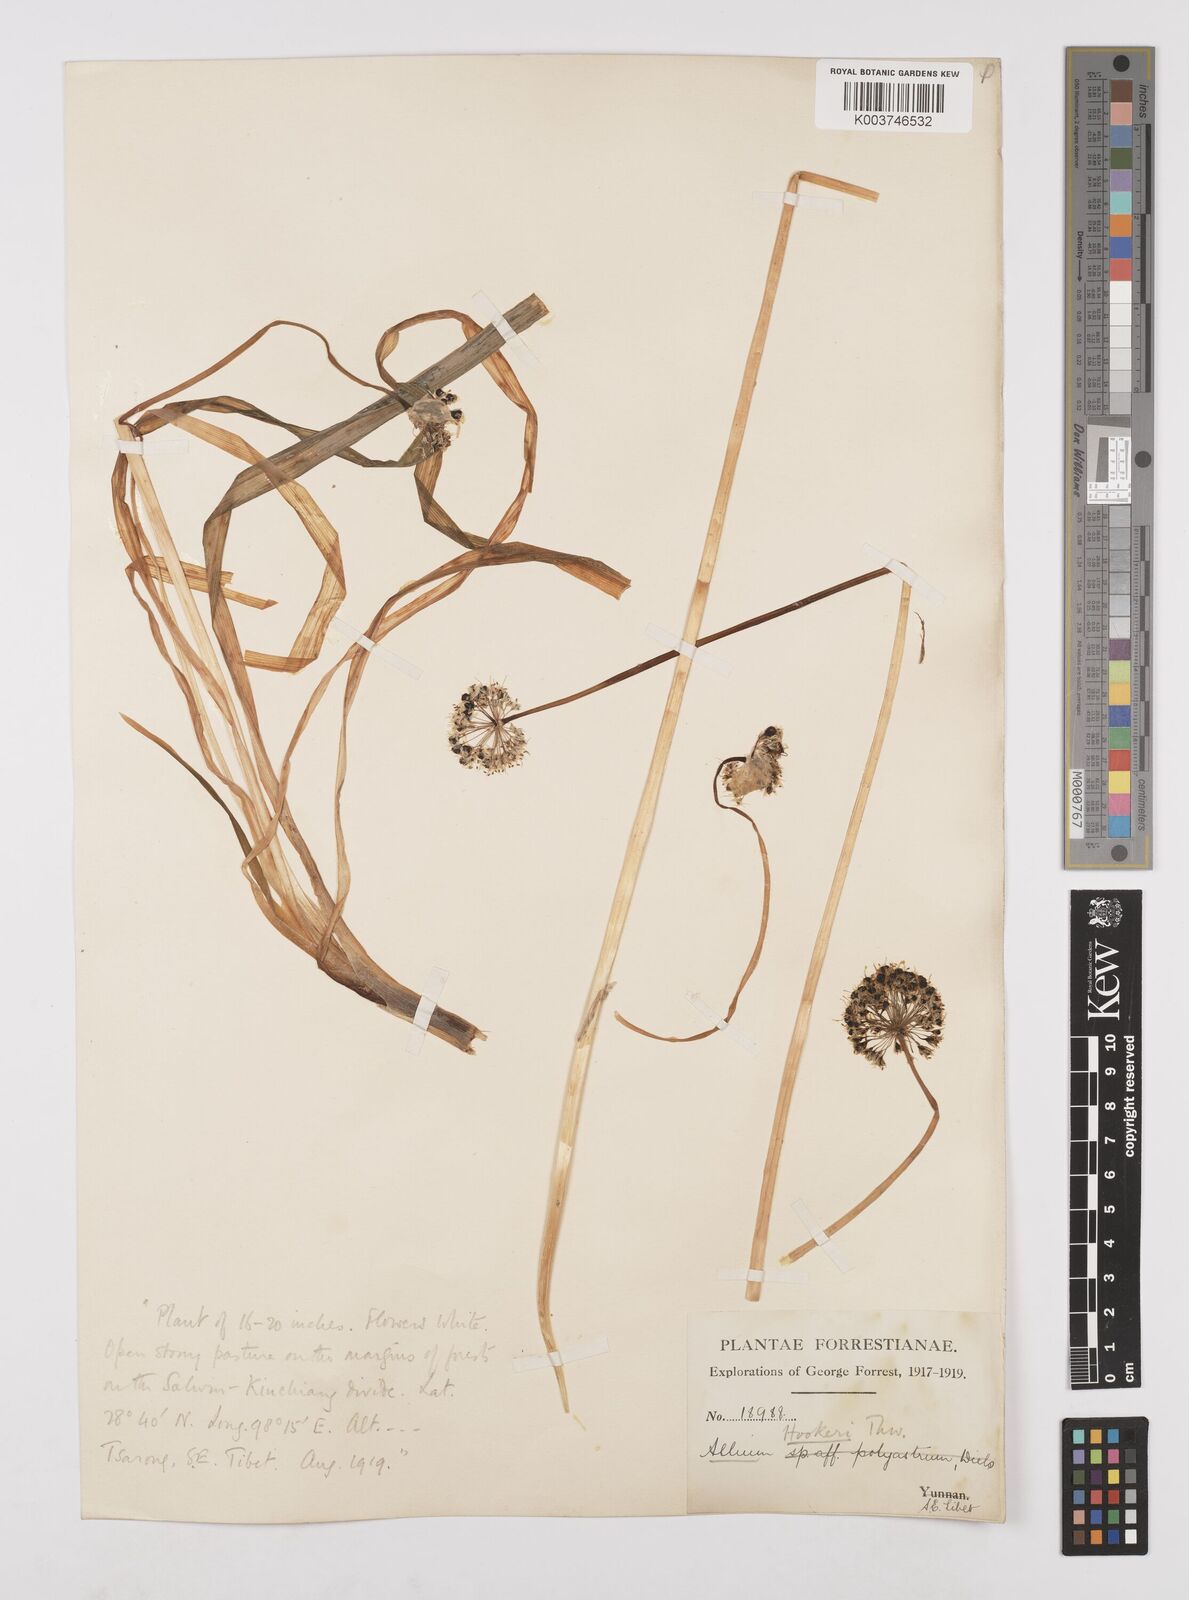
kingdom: Plantae
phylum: Tracheophyta
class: Liliopsida
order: Asparagales
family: Amaryllidaceae
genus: Allium
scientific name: Allium hookeri
